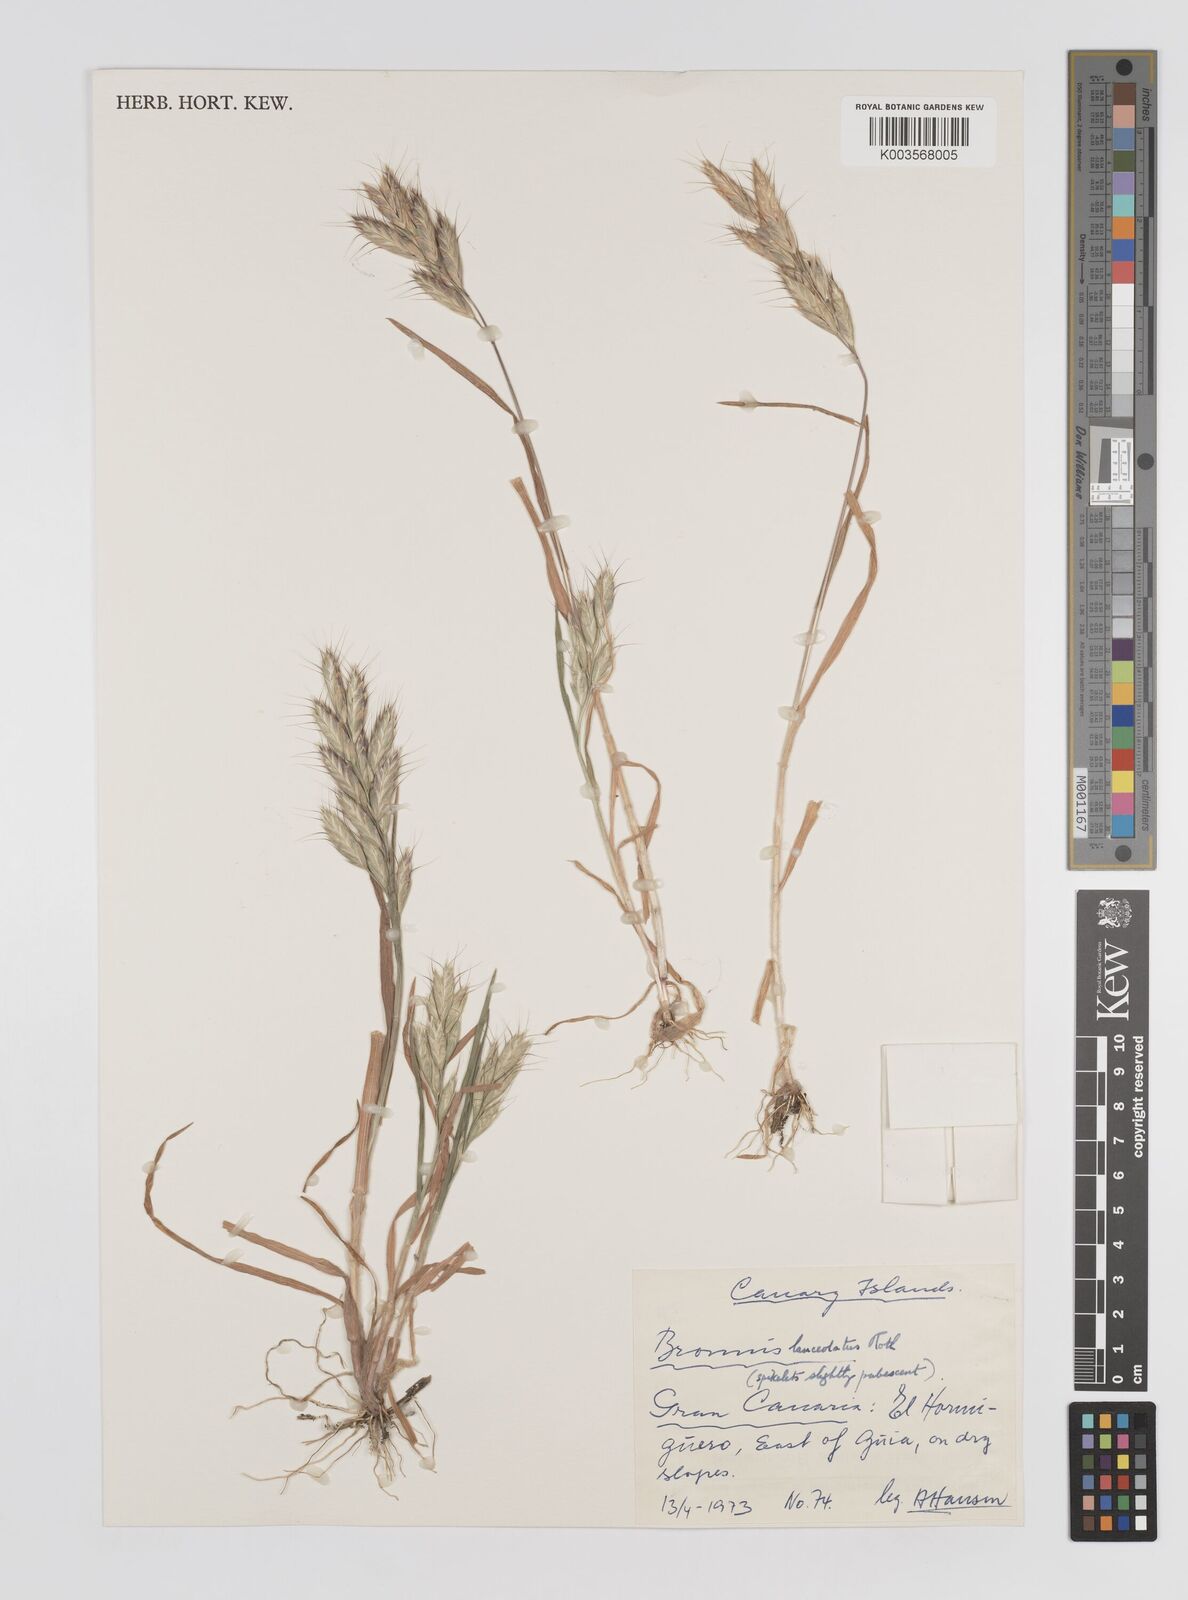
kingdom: Plantae
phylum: Tracheophyta
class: Liliopsida
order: Poales
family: Poaceae
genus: Bromus
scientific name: Bromus lanceolatus
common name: Mediterranean brome
